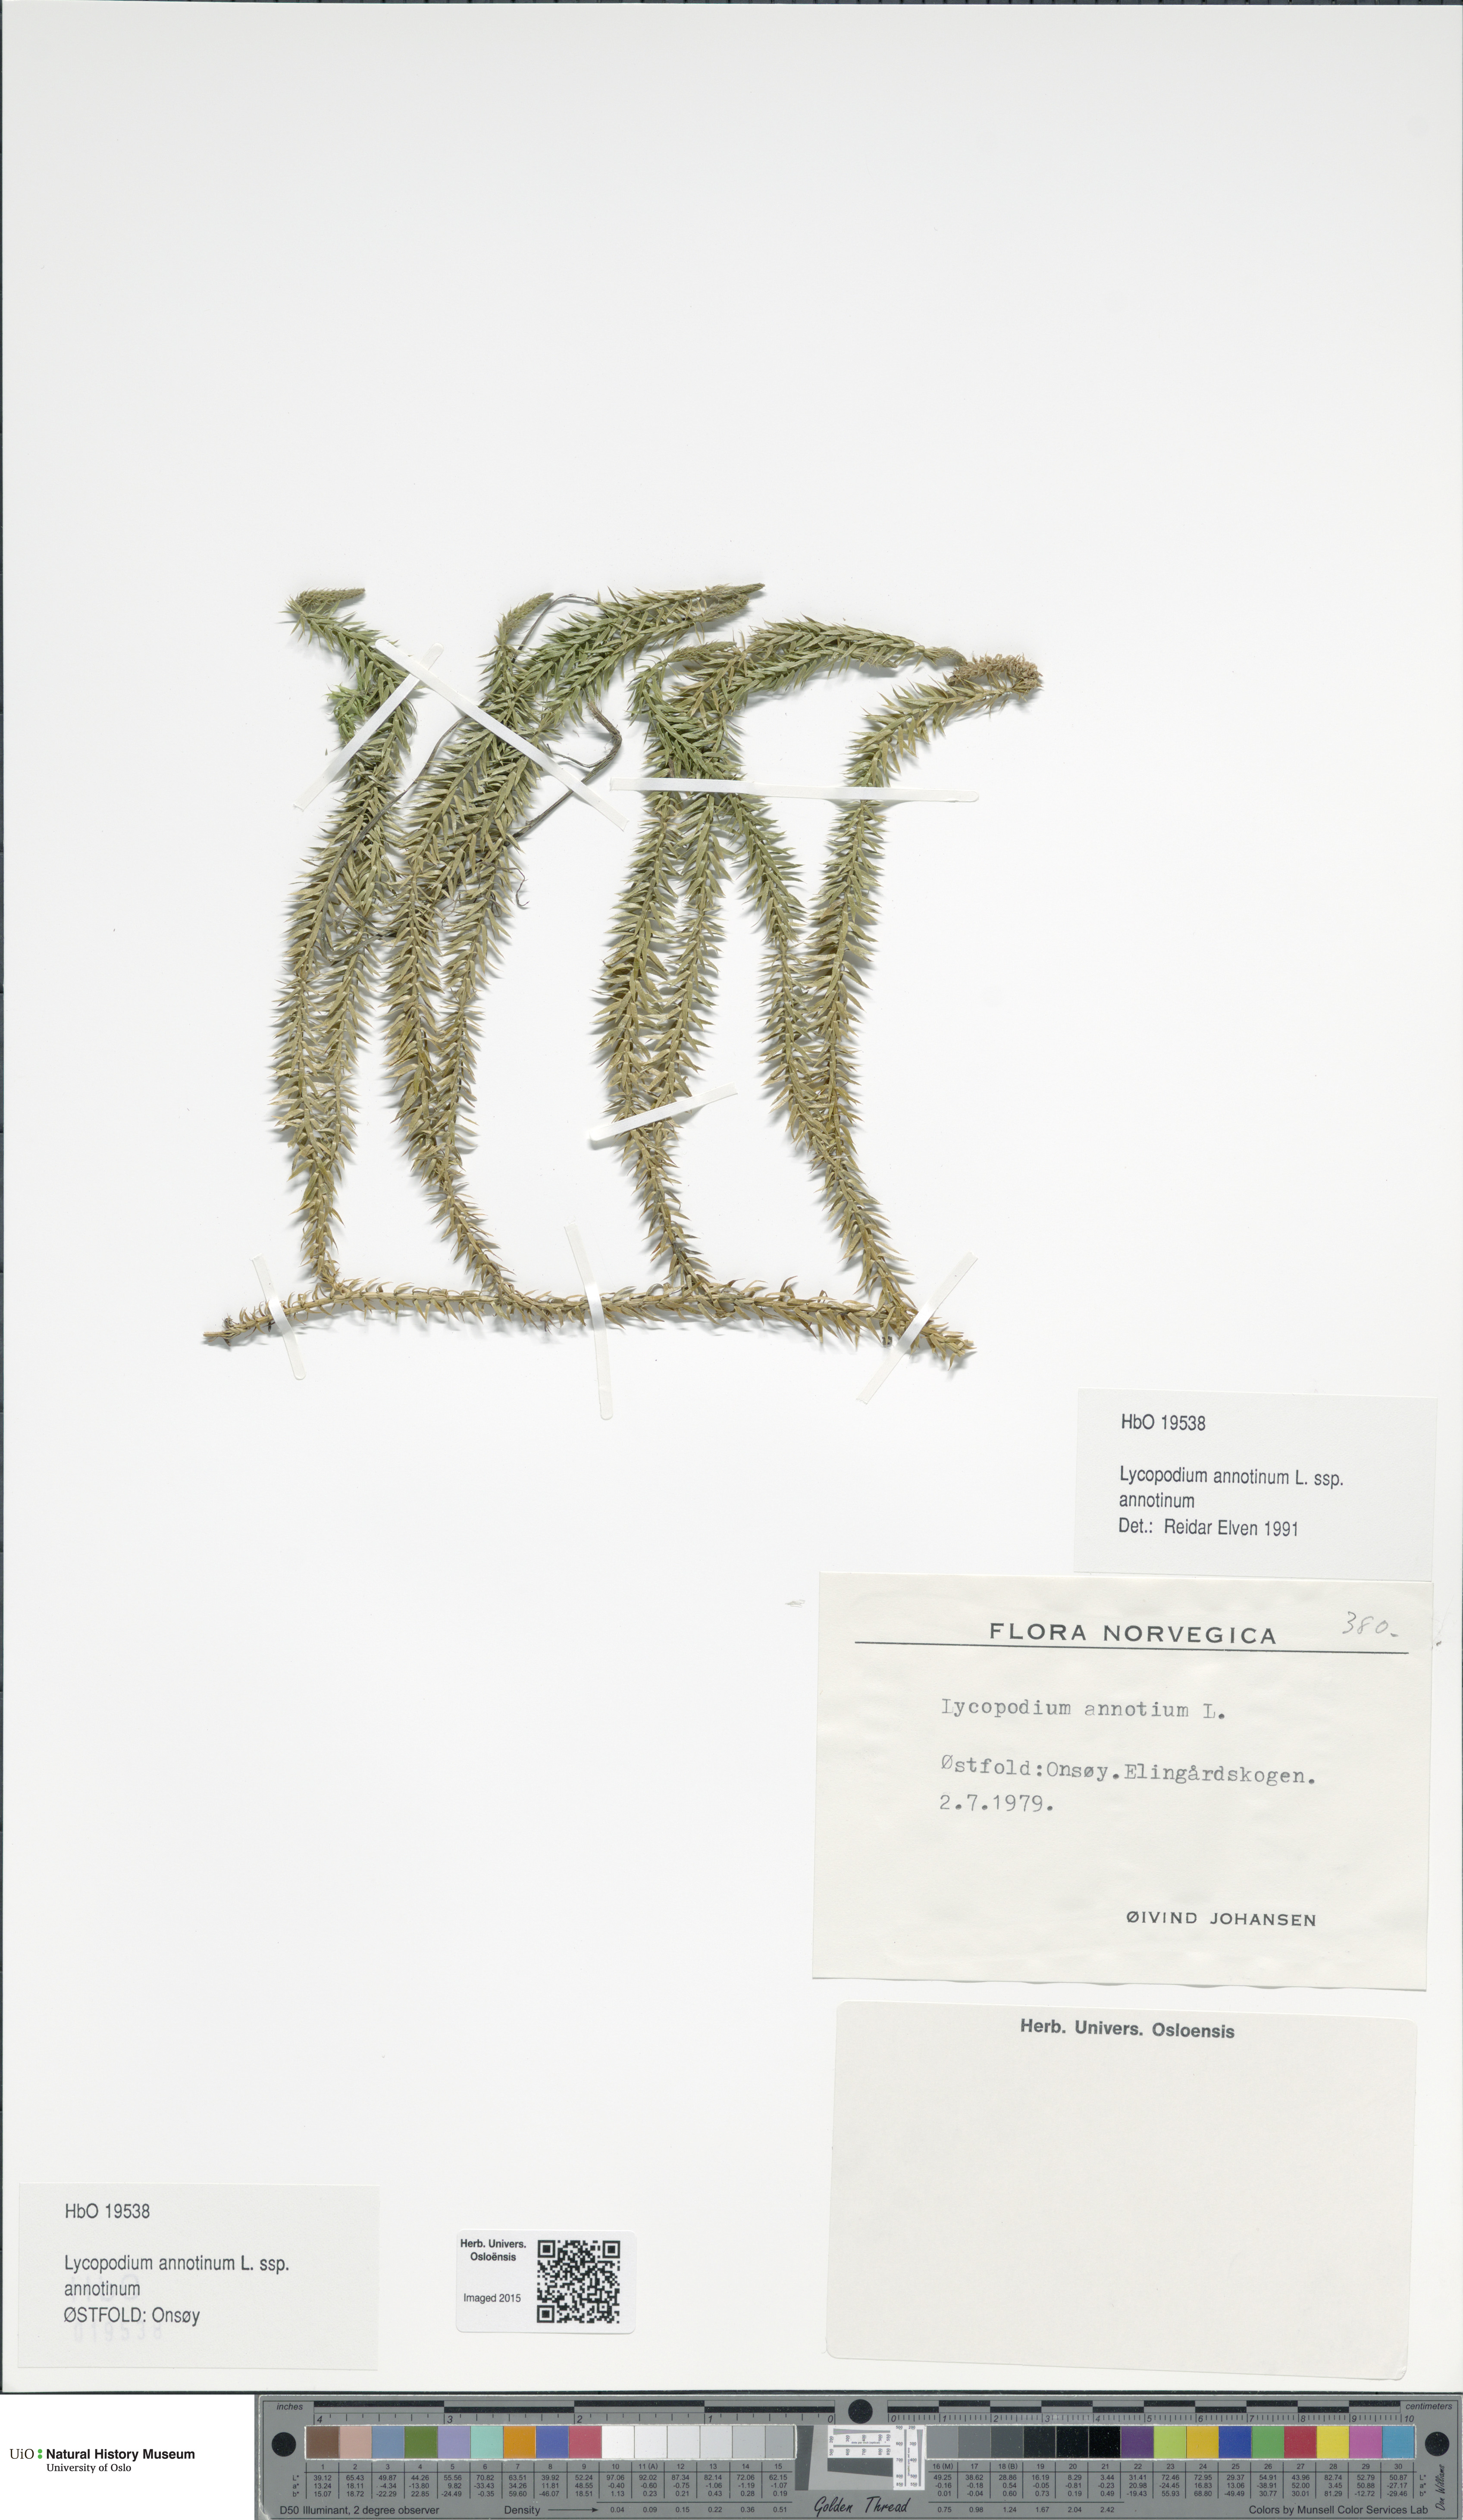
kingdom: Plantae
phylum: Tracheophyta
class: Lycopodiopsida
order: Lycopodiales
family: Lycopodiaceae
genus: Spinulum
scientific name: Spinulum annotinum
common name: Interrupted club-moss
